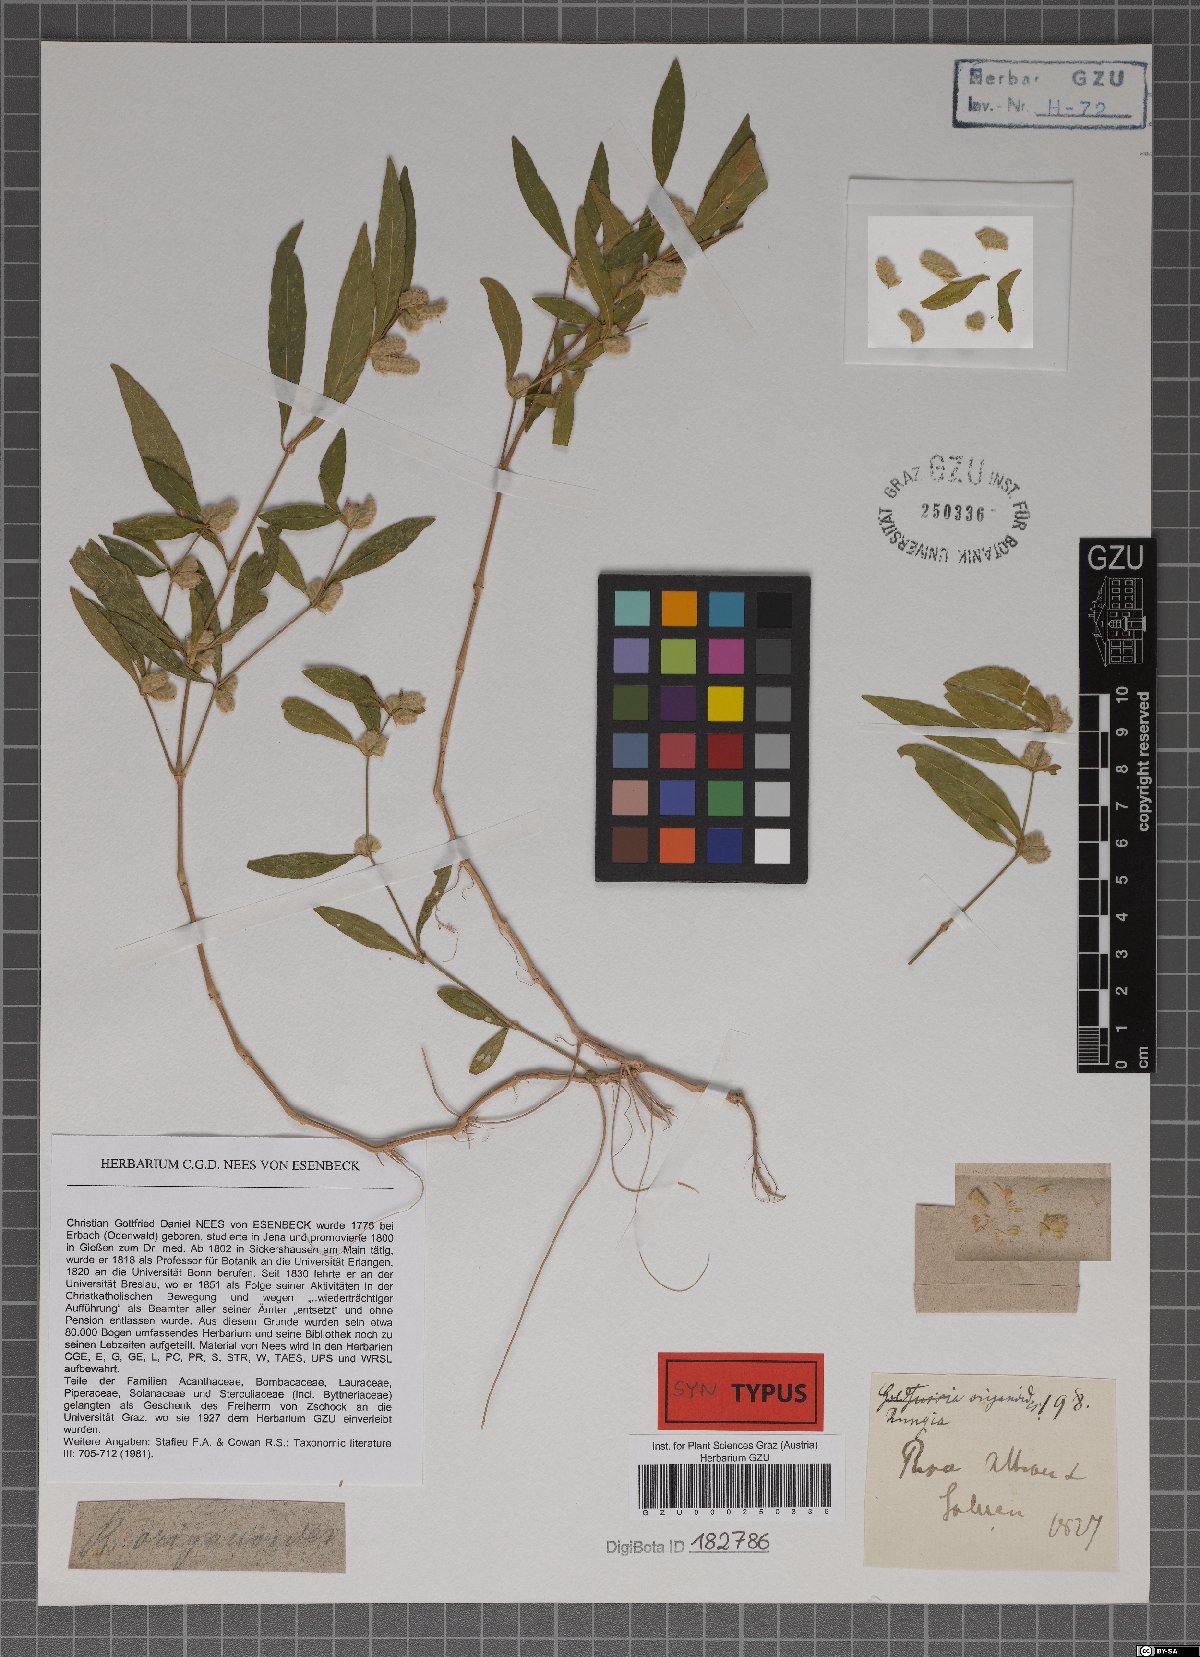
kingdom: Plantae
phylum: Tracheophyta
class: Magnoliopsida
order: Lamiales
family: Acanthaceae
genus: Rungia
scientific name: Rungia pectinata
